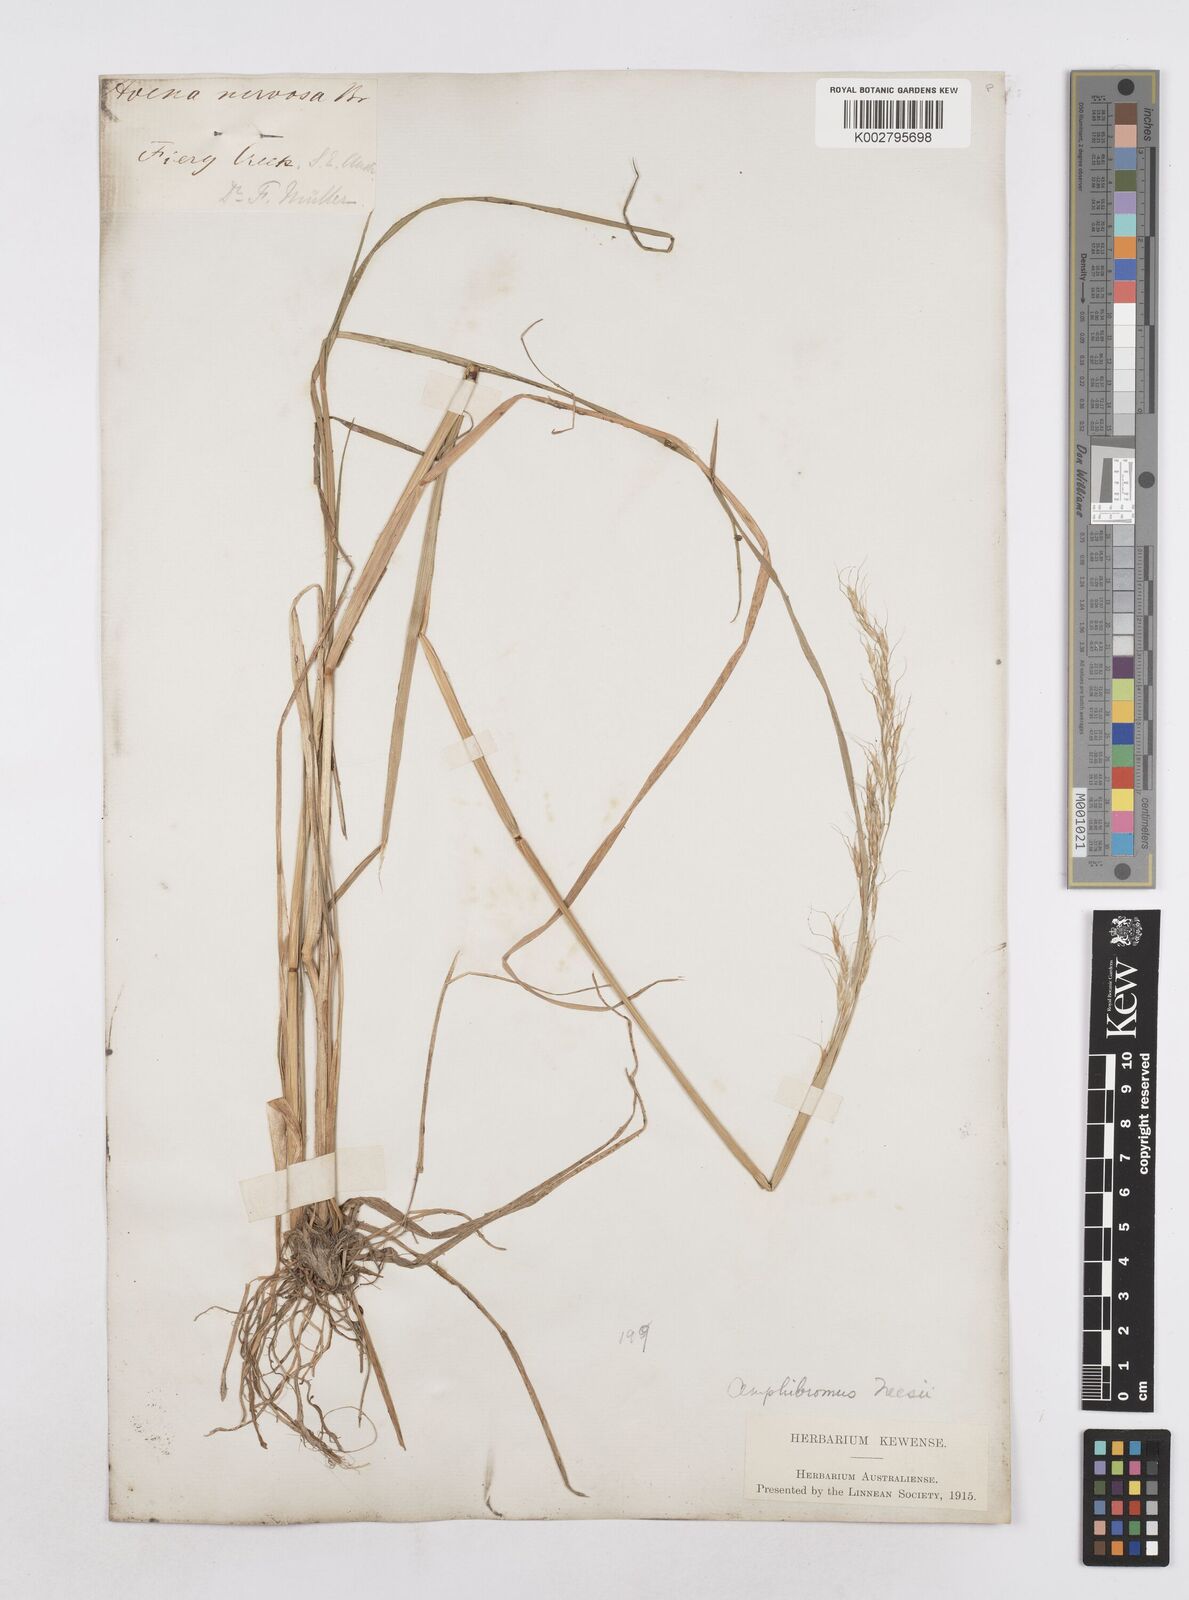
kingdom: Plantae
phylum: Tracheophyta
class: Liliopsida
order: Poales
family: Poaceae
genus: Amphibromus
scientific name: Amphibromus neesii
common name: Australian wallaby grass
